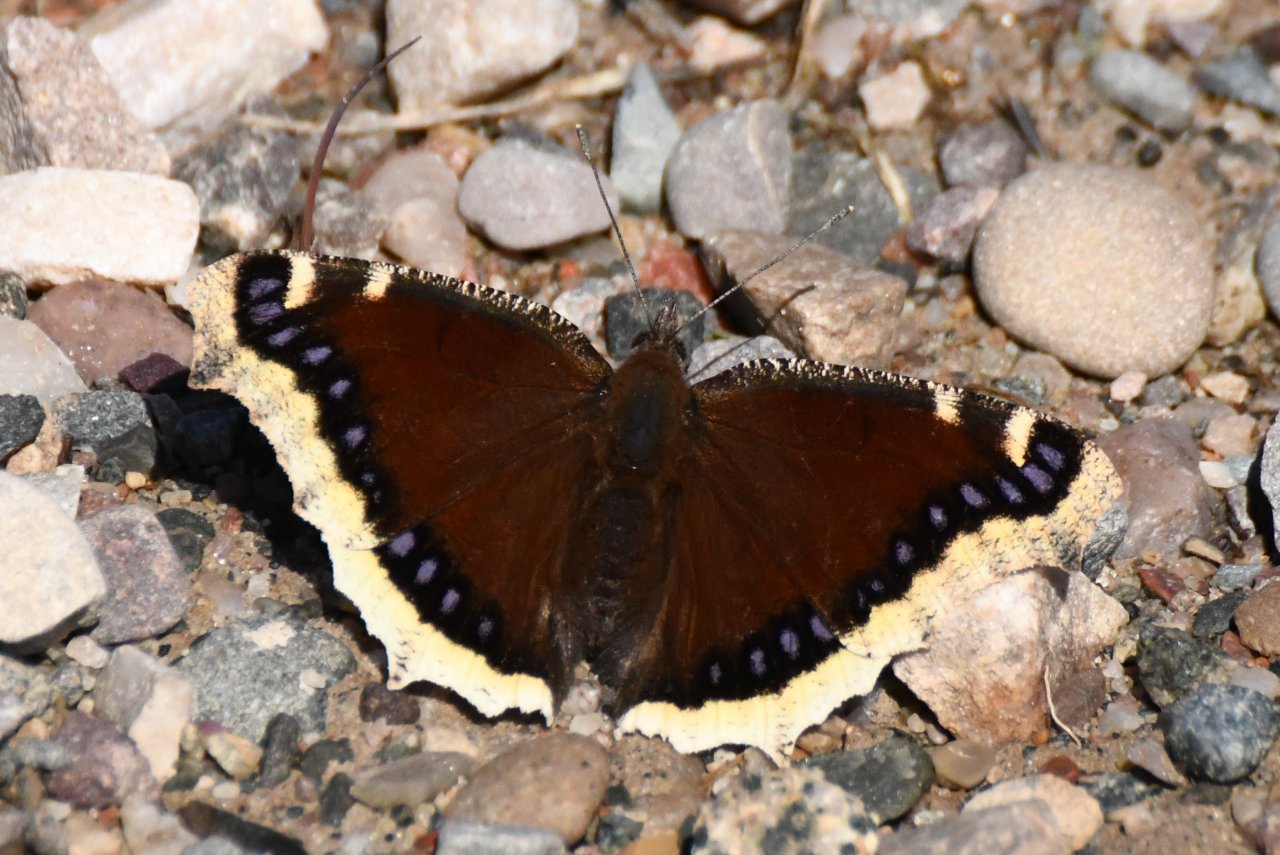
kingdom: Animalia
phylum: Arthropoda
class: Insecta
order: Lepidoptera
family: Nymphalidae
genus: Nymphalis
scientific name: Nymphalis antiopa
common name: Mourning Cloak
